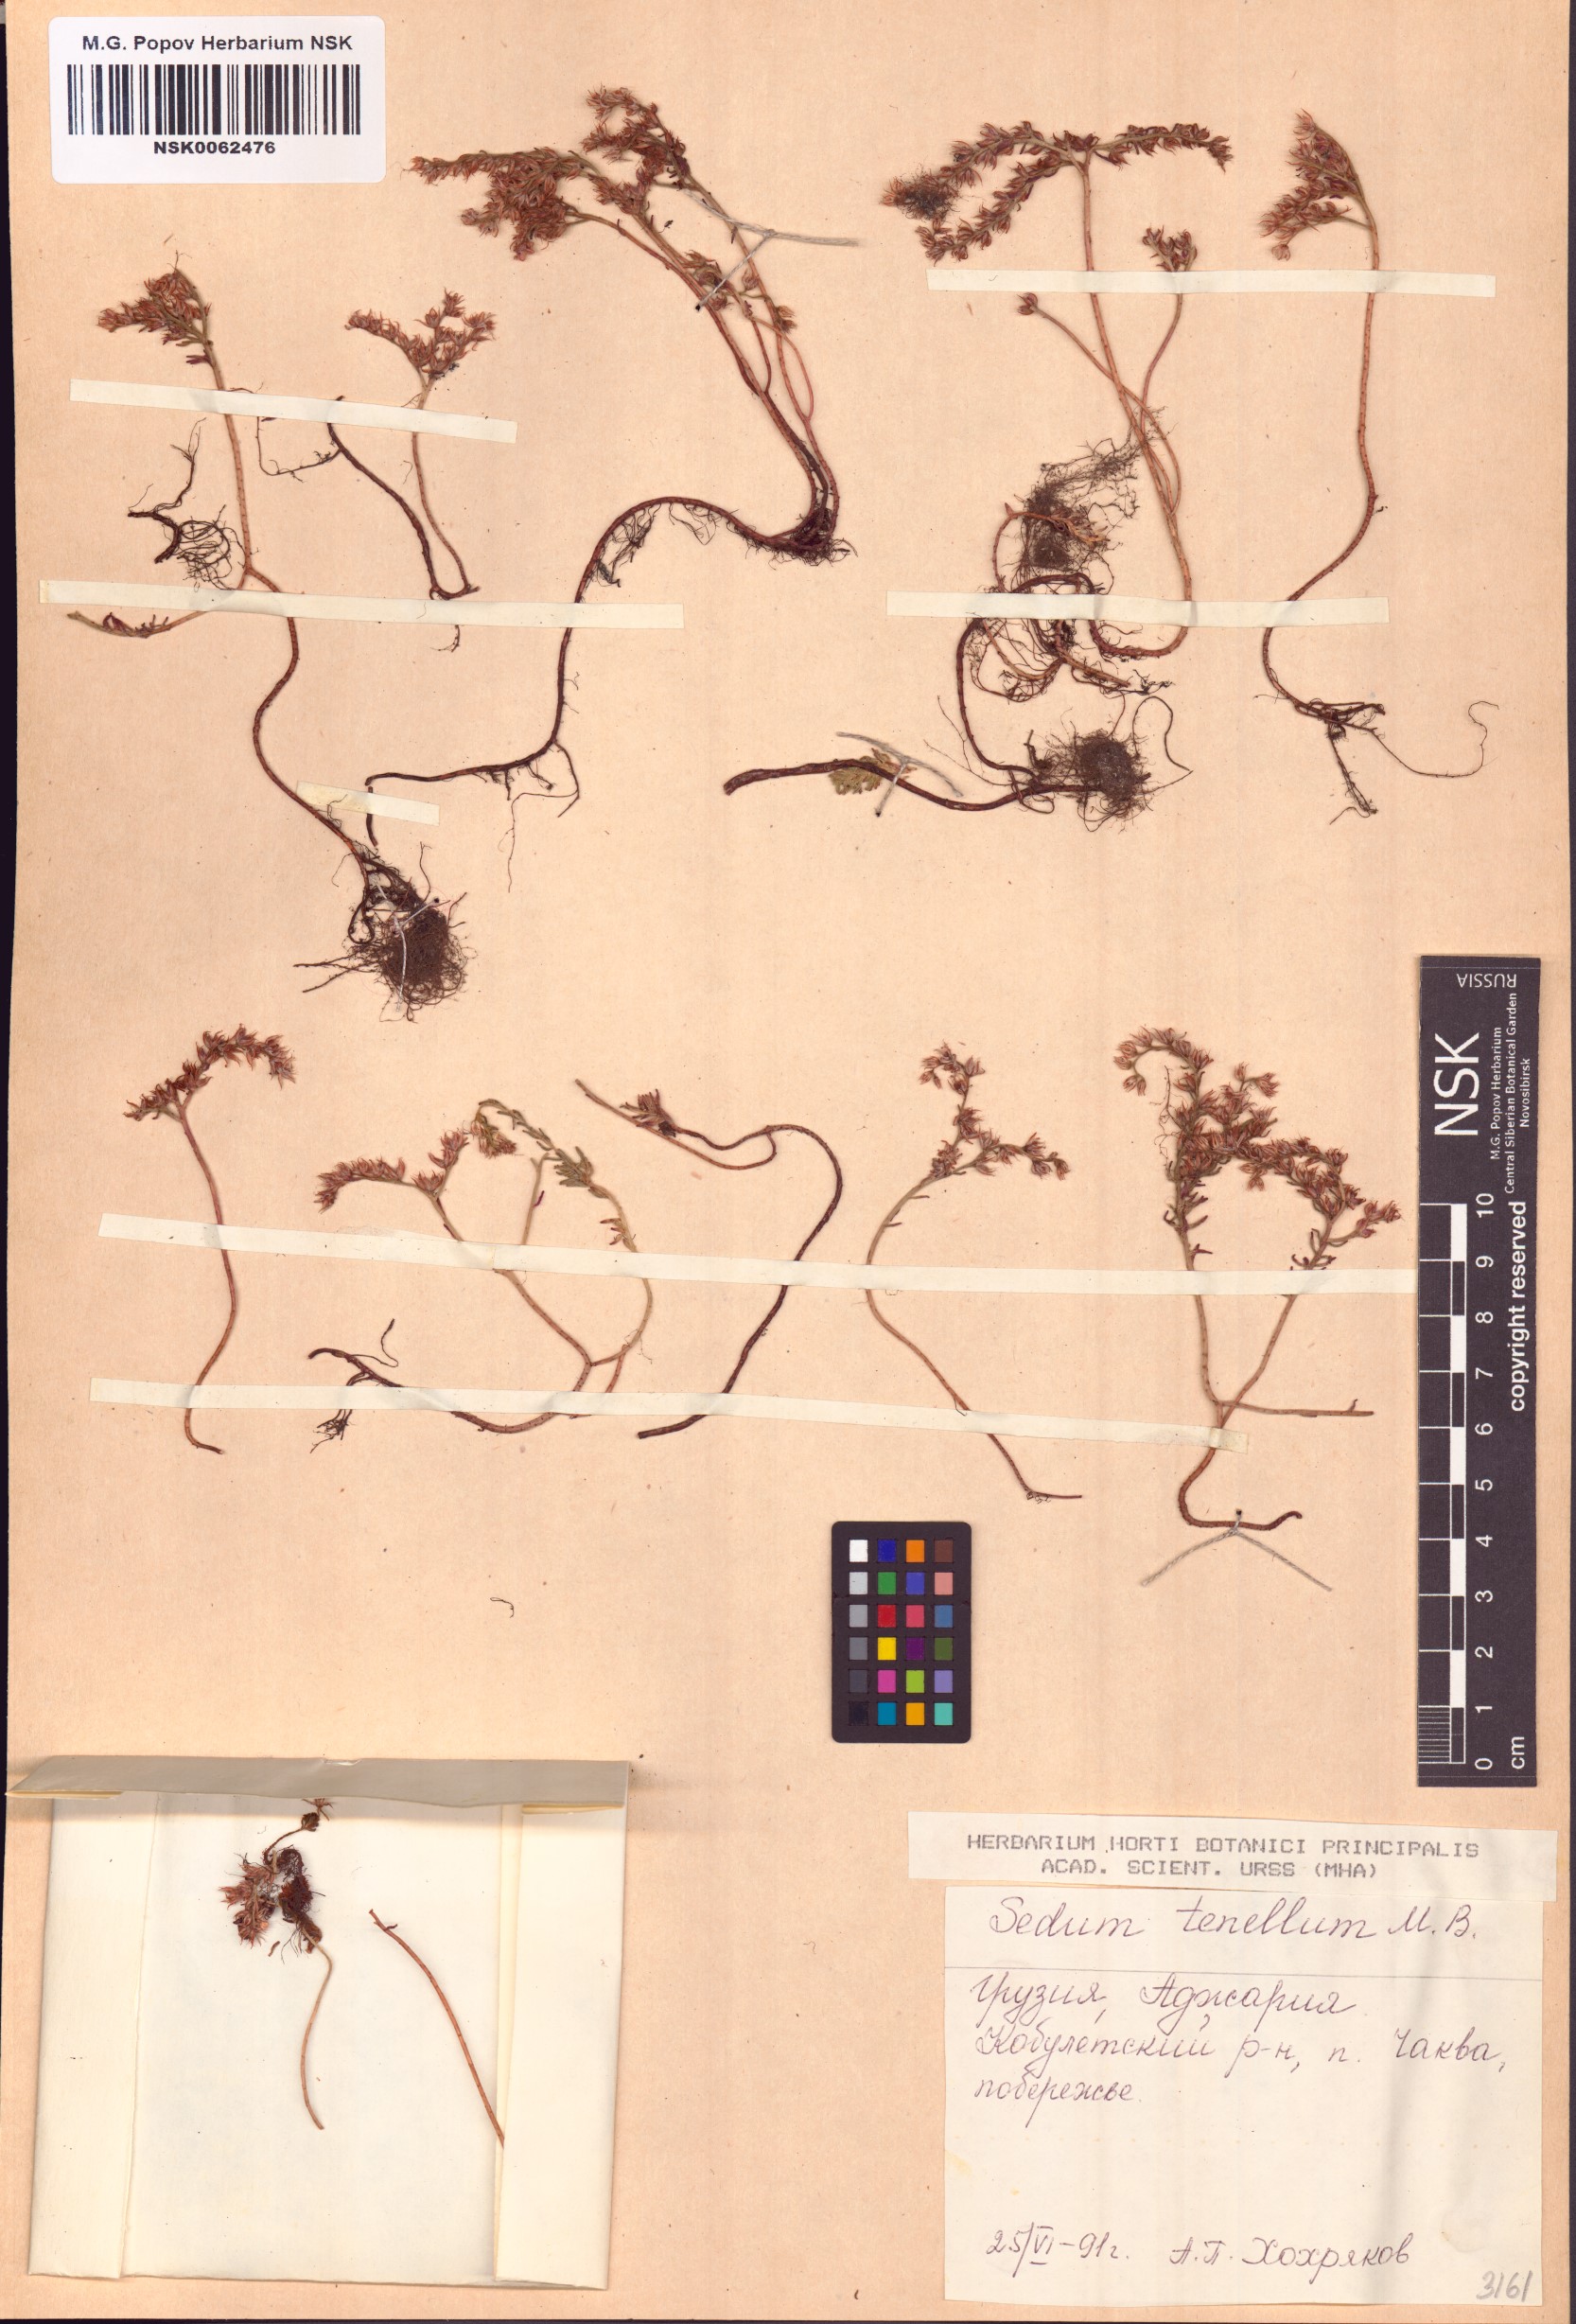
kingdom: Plantae
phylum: Tracheophyta
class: Magnoliopsida
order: Saxifragales
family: Crassulaceae
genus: Sedum
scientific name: Sedum tenellum
